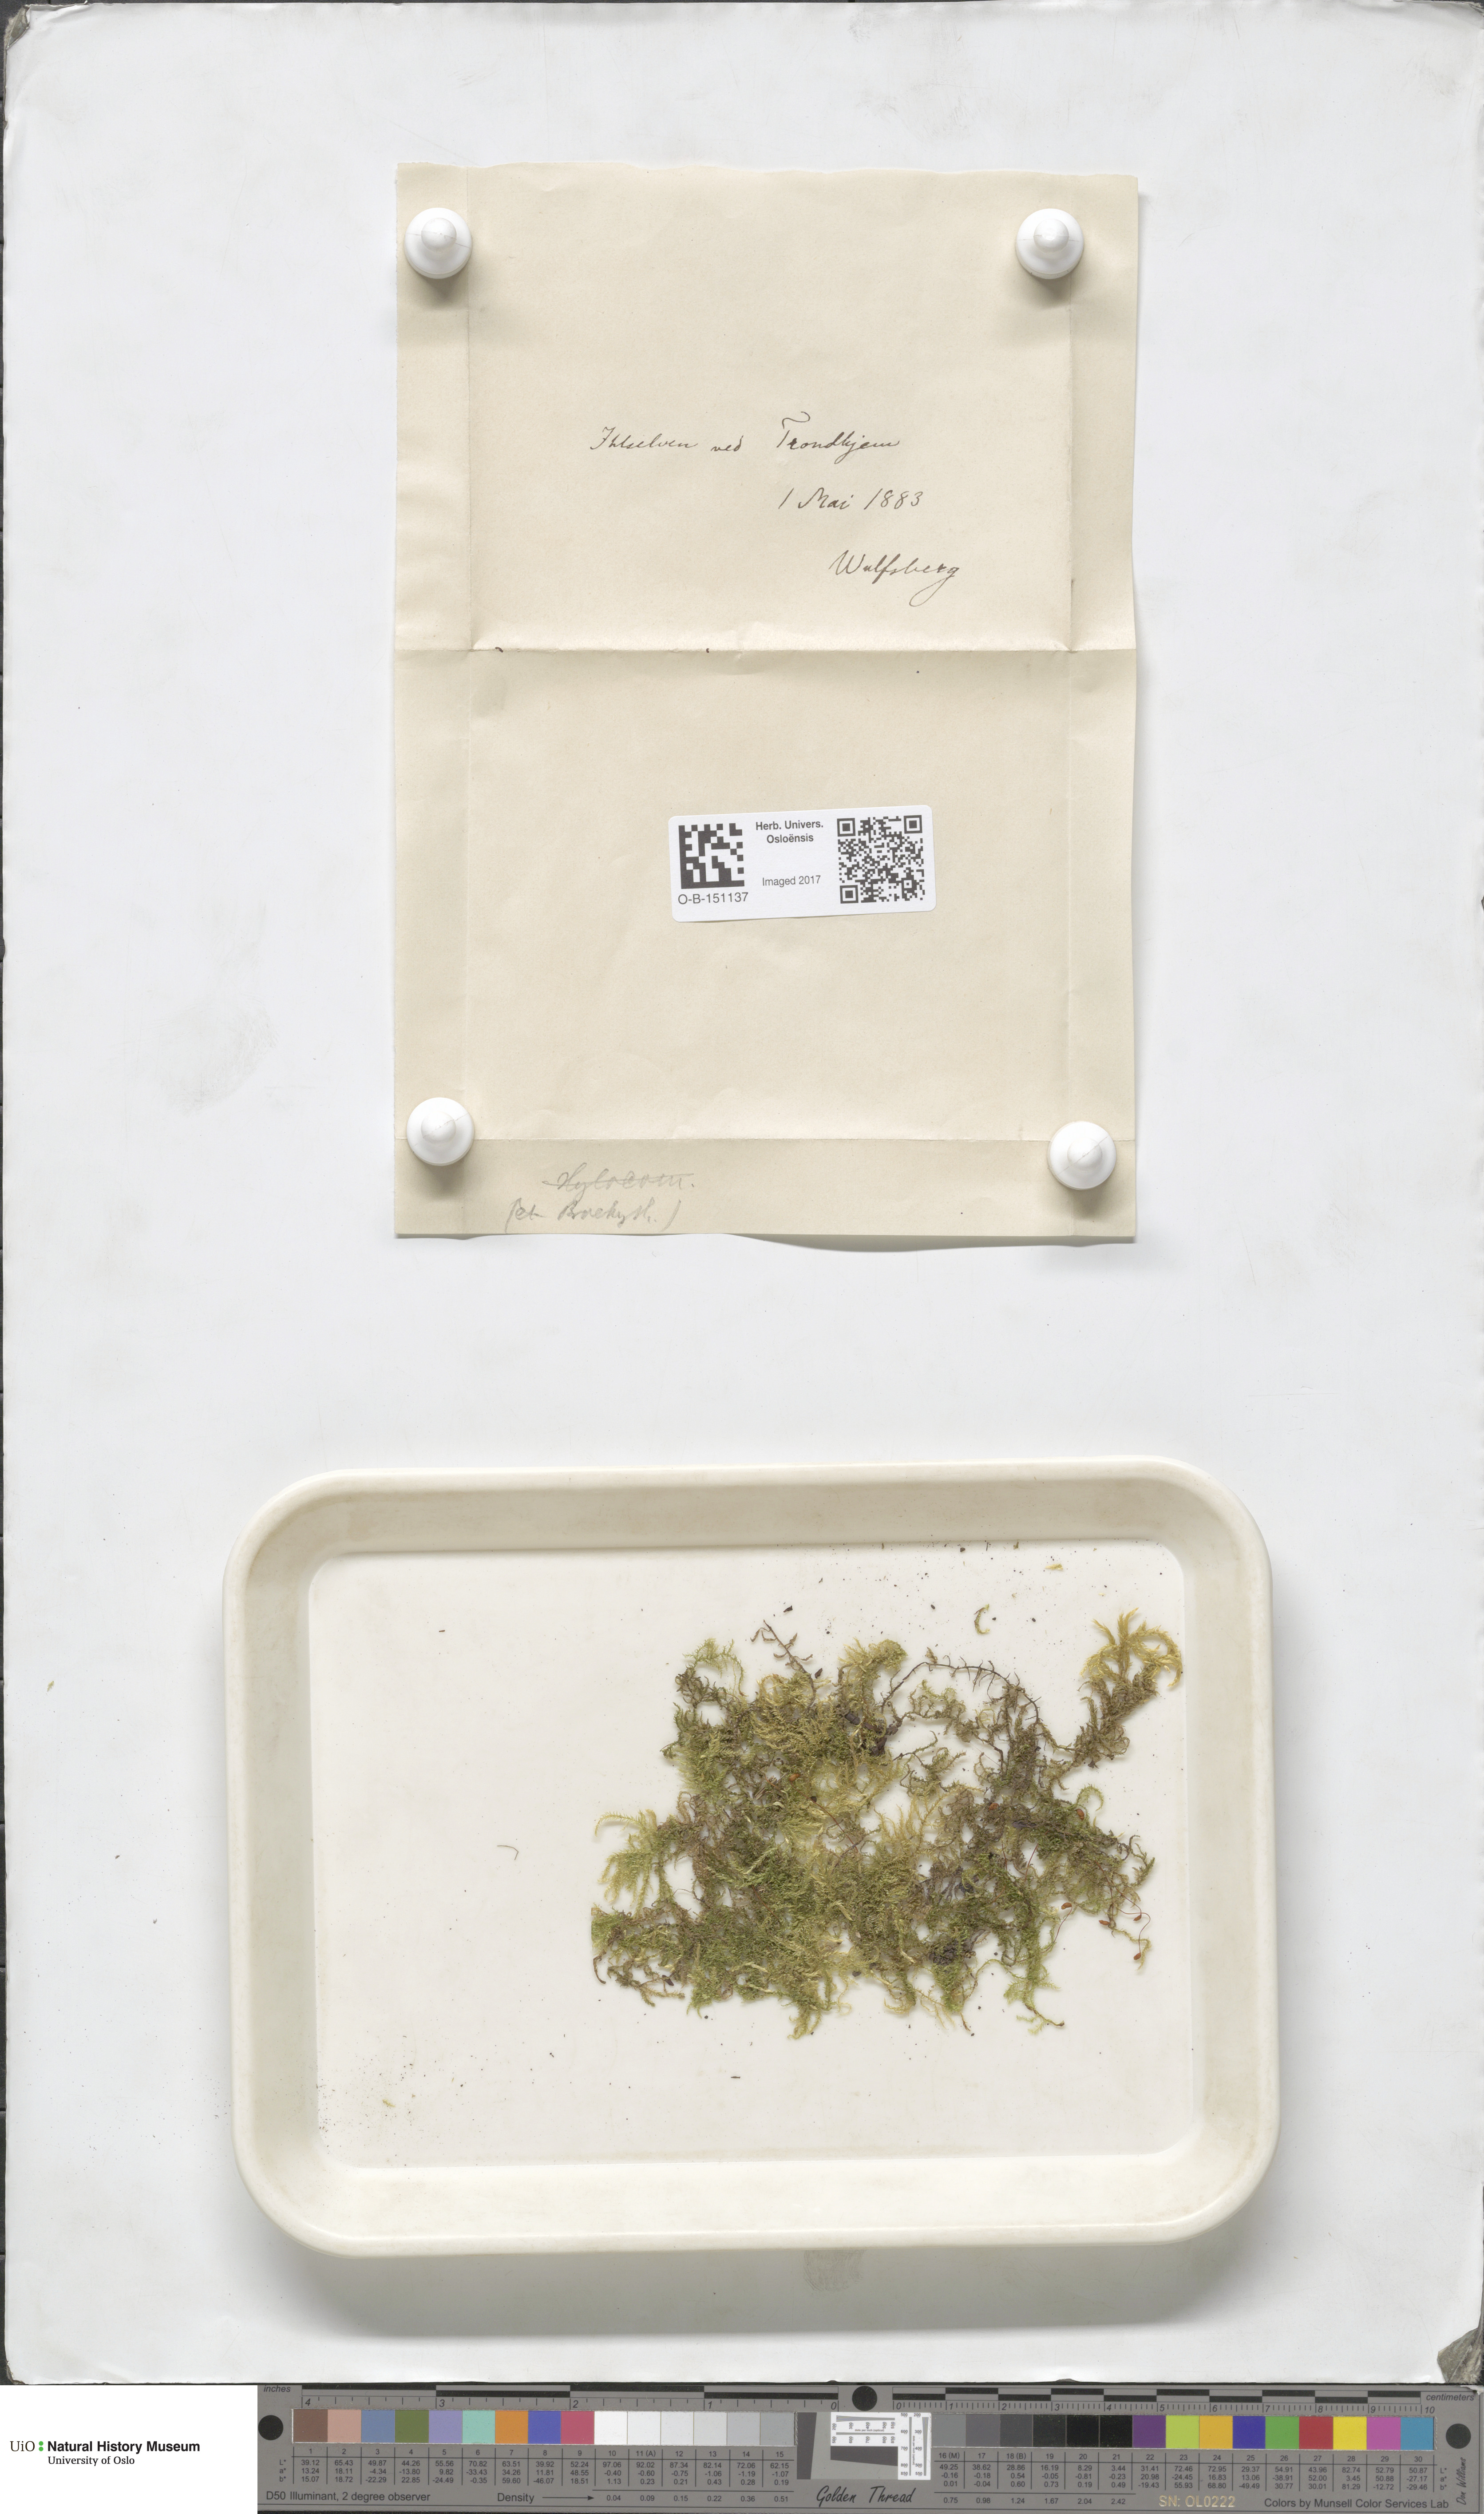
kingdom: Plantae
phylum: Bryophyta
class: Bryopsida
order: Hypnales
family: Brachytheciaceae
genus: Brachythecium
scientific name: Brachythecium
